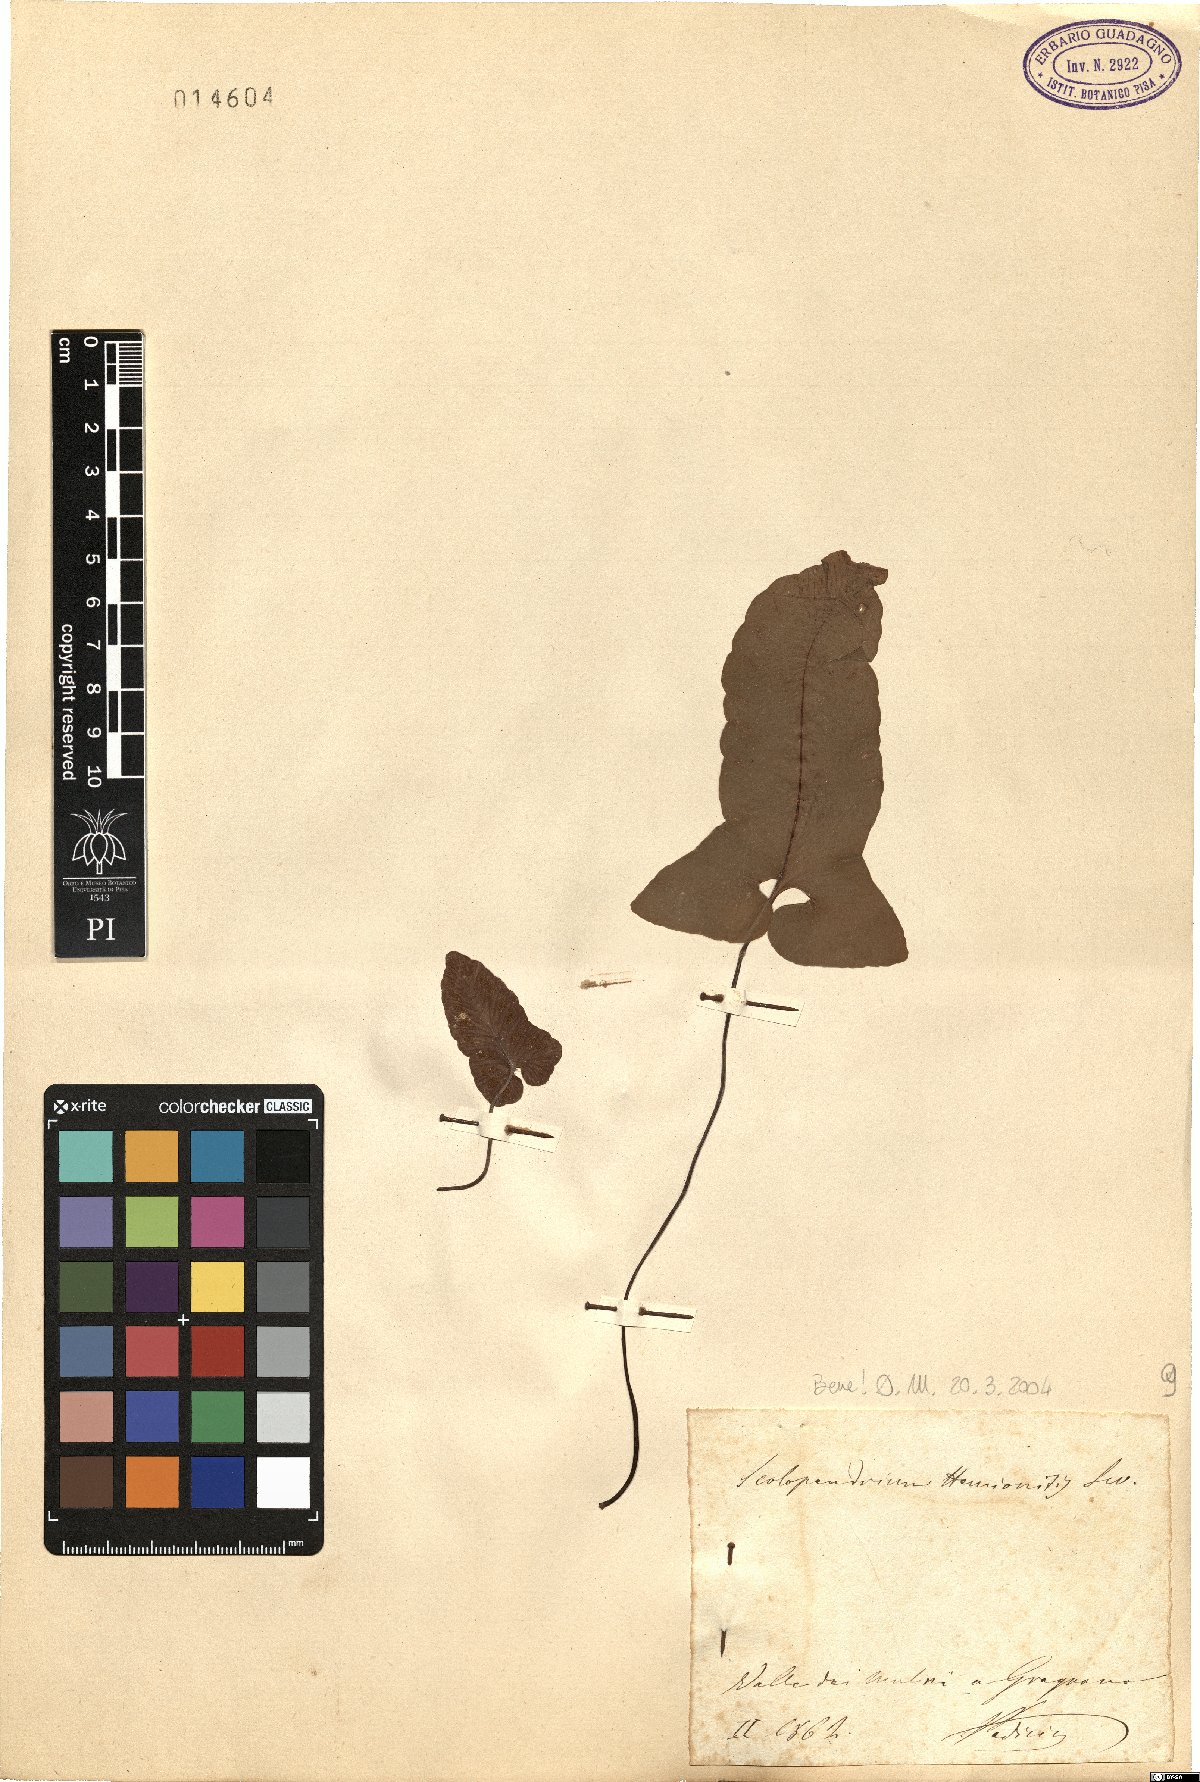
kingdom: Plantae
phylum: Tracheophyta
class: Polypodiopsida
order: Polypodiales
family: Aspleniaceae
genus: Asplenium
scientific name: Asplenium sagittatum
